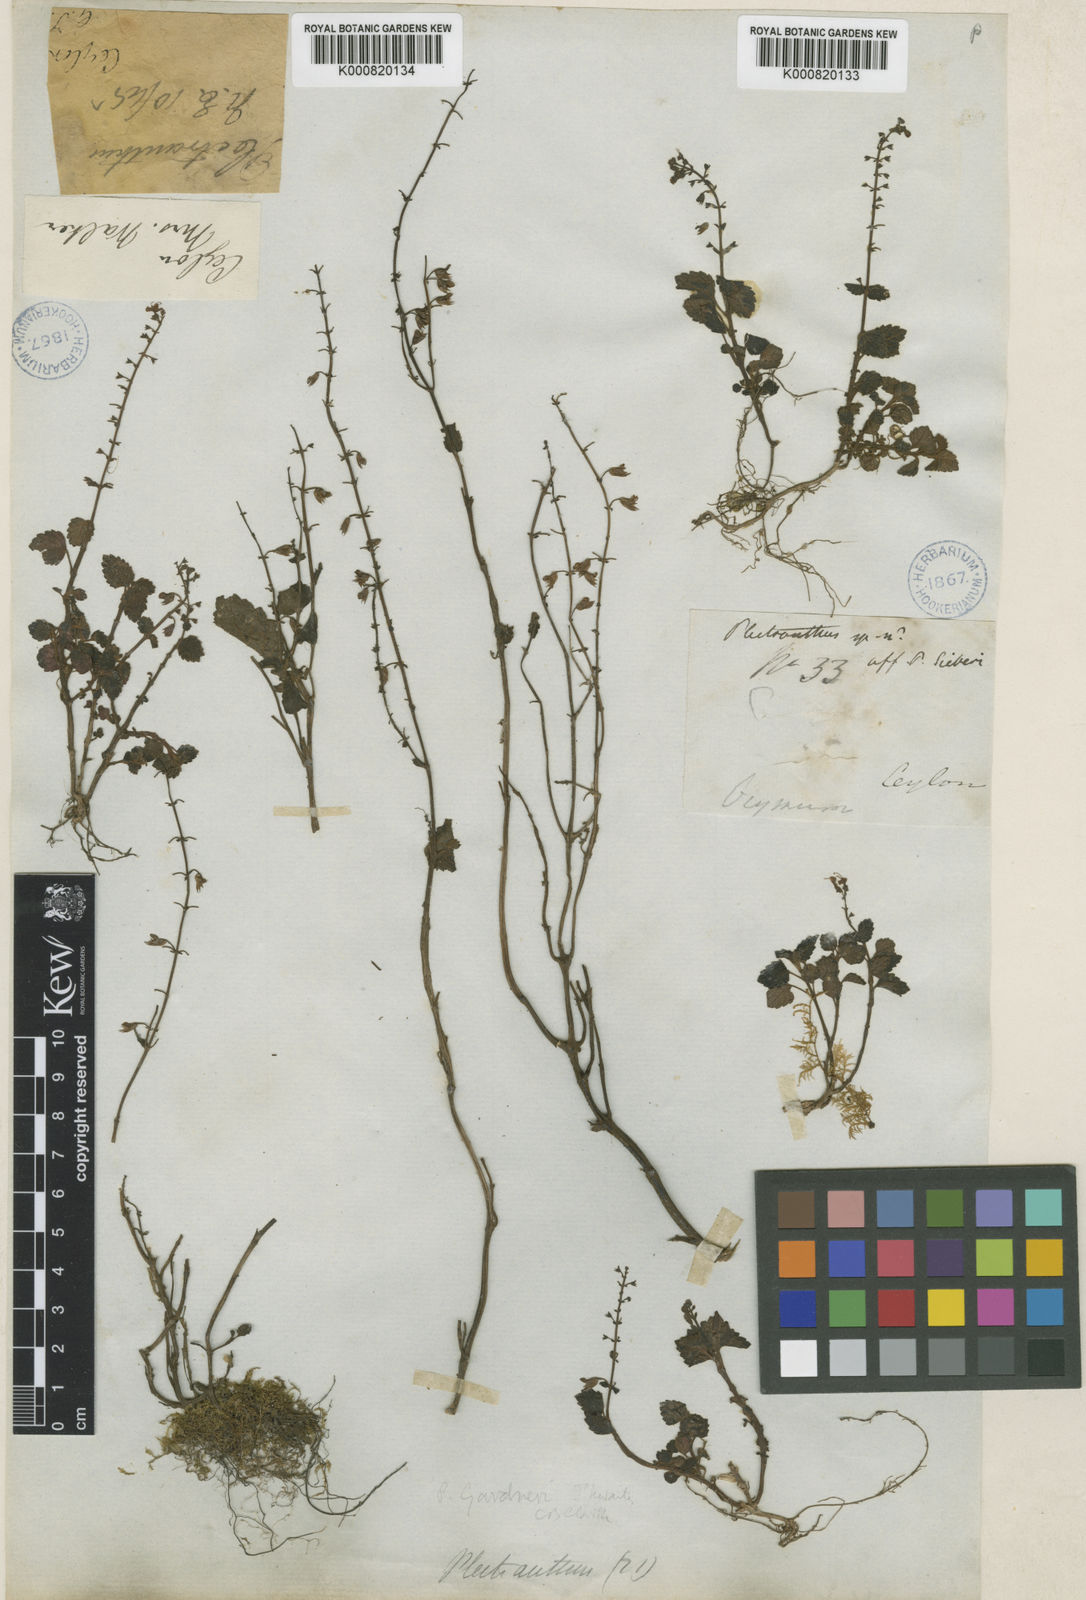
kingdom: Plantae
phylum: Tracheophyta
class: Magnoliopsida
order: Lamiales
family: Lamiaceae
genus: Plectranthus
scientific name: Plectranthus gardneri
